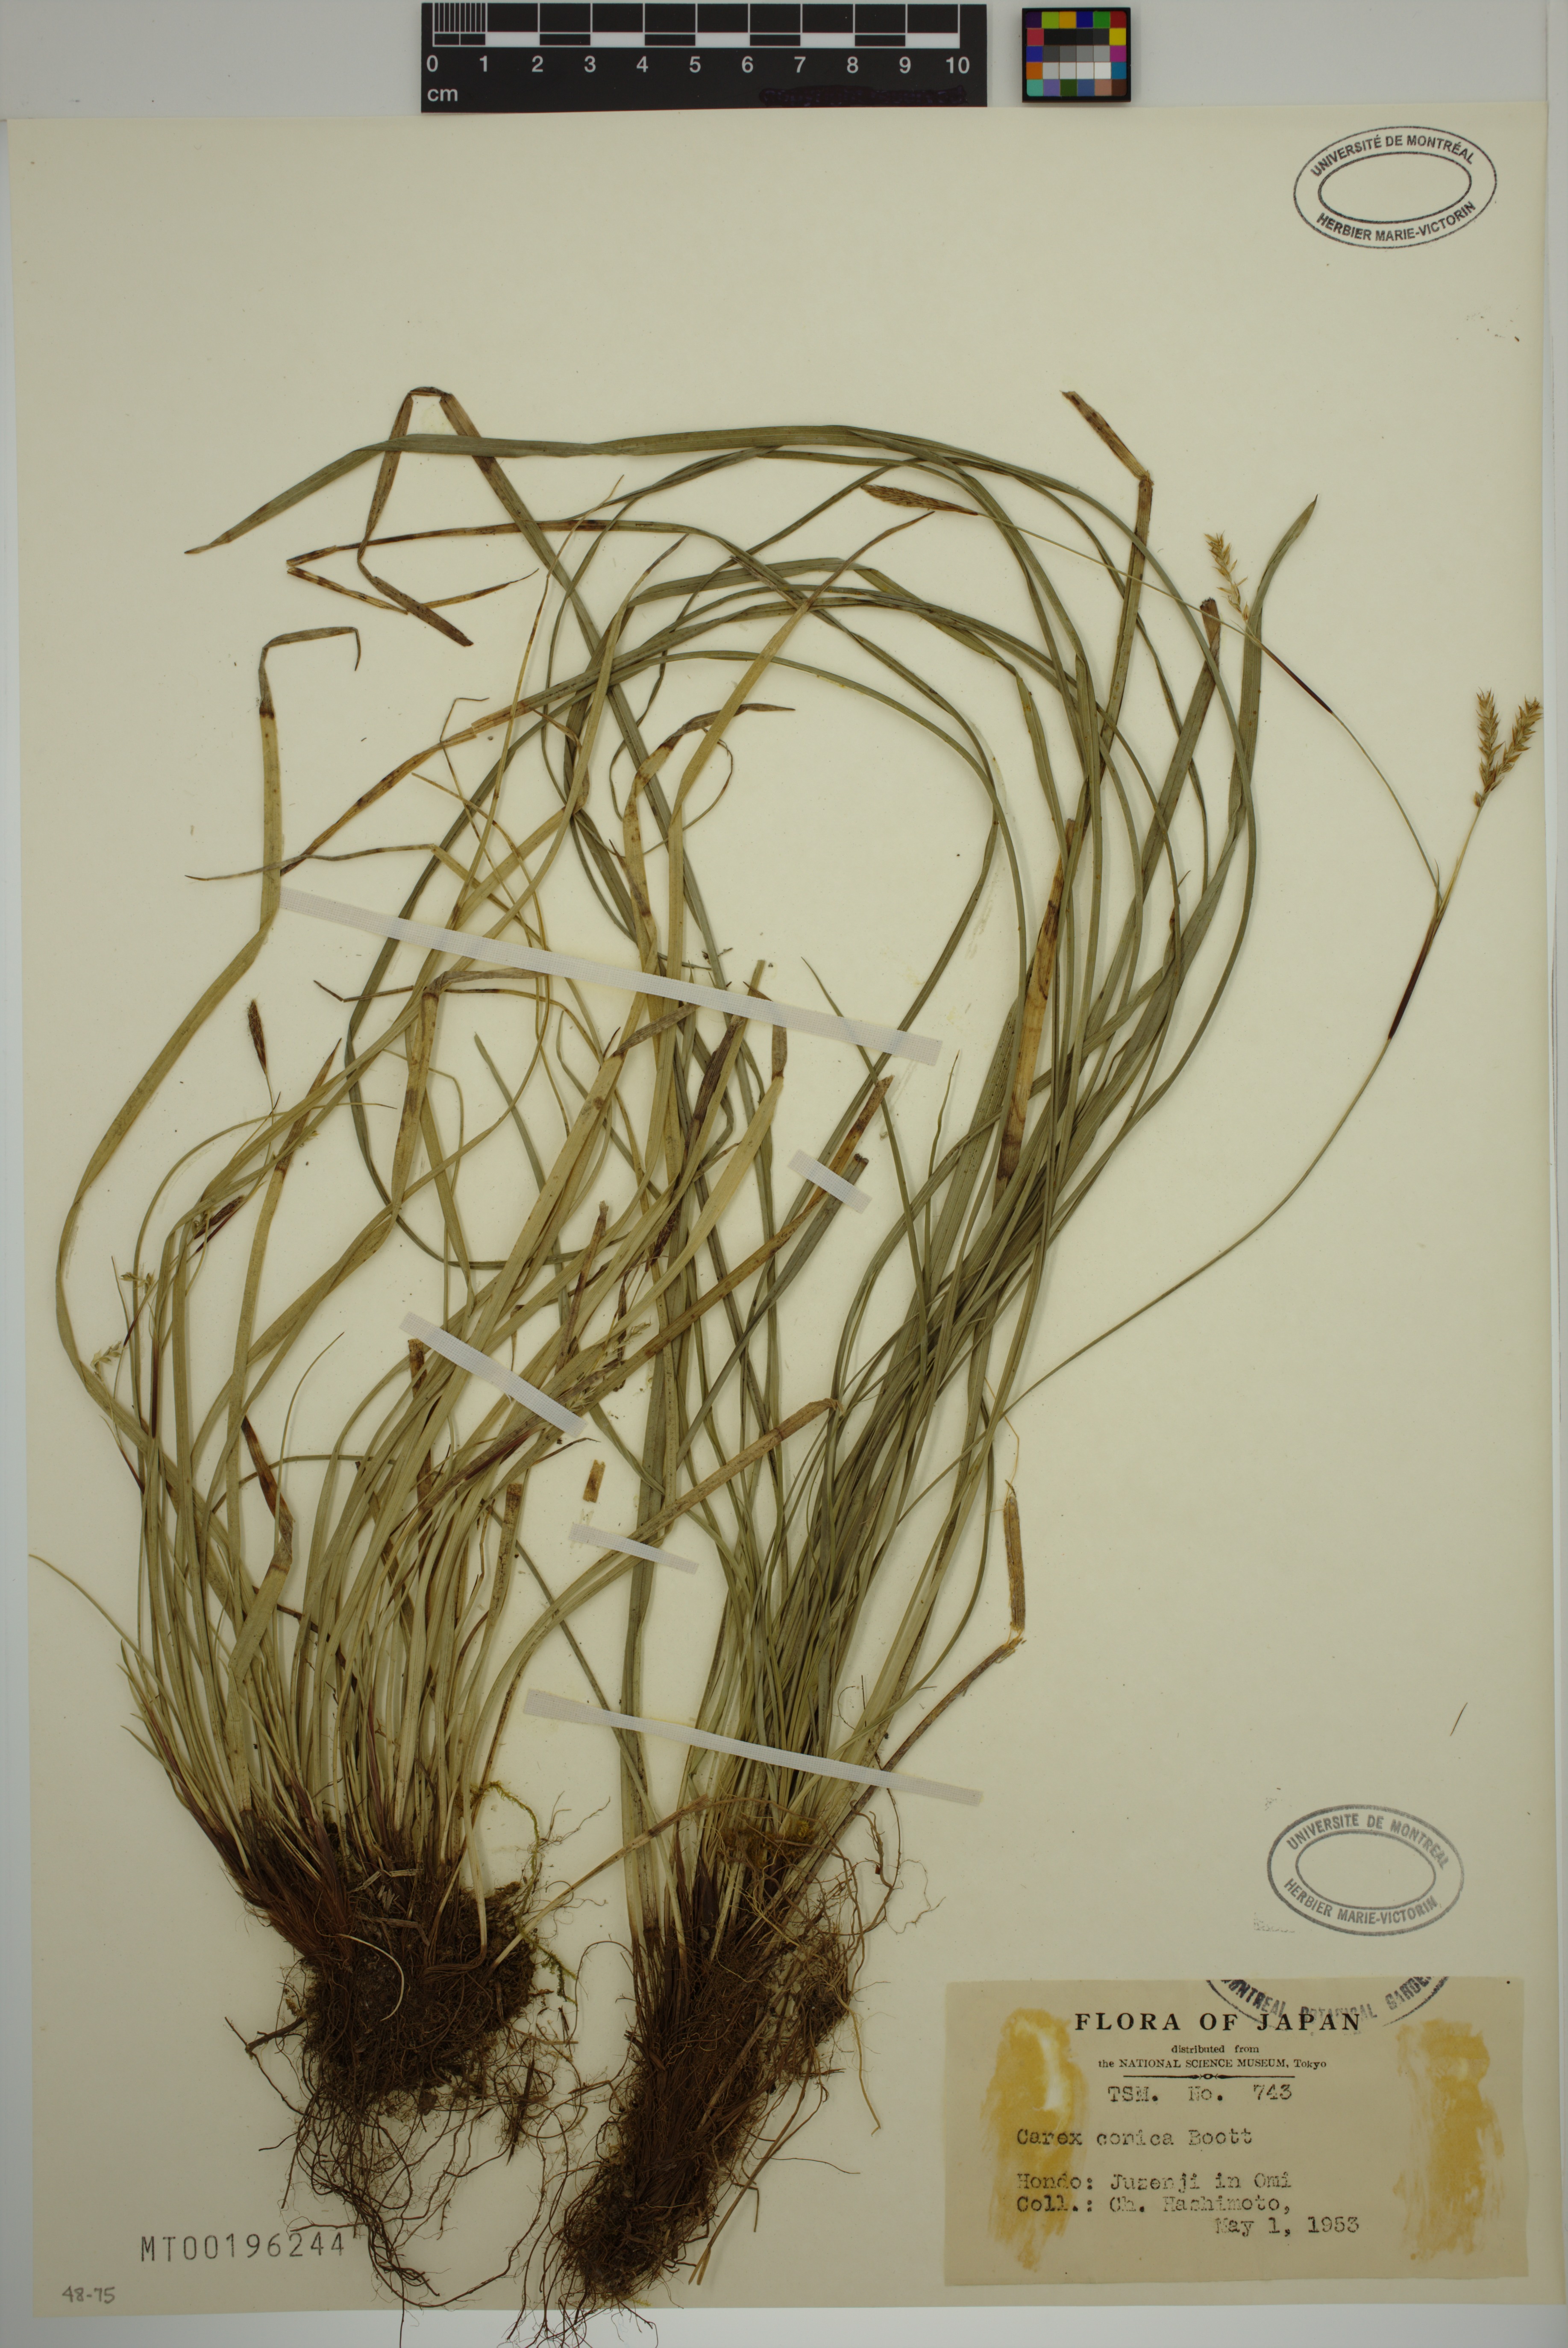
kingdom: Plantae
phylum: Tracheophyta
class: Liliopsida
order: Poales
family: Cyperaceae
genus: Carex
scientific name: Carex conica
